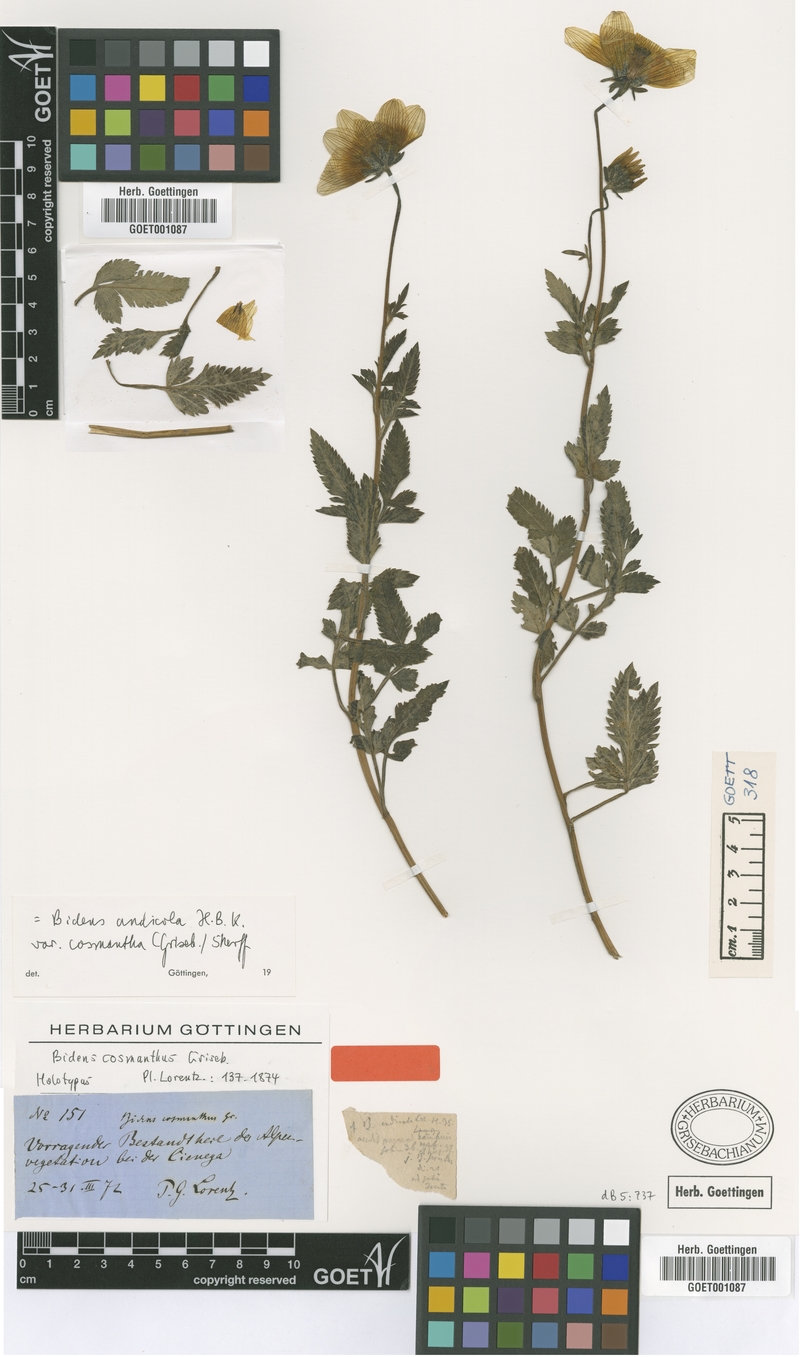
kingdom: Plantae
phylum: Tracheophyta
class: Magnoliopsida
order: Asterales
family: Asteraceae
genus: Bidens
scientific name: Bidens andicola
